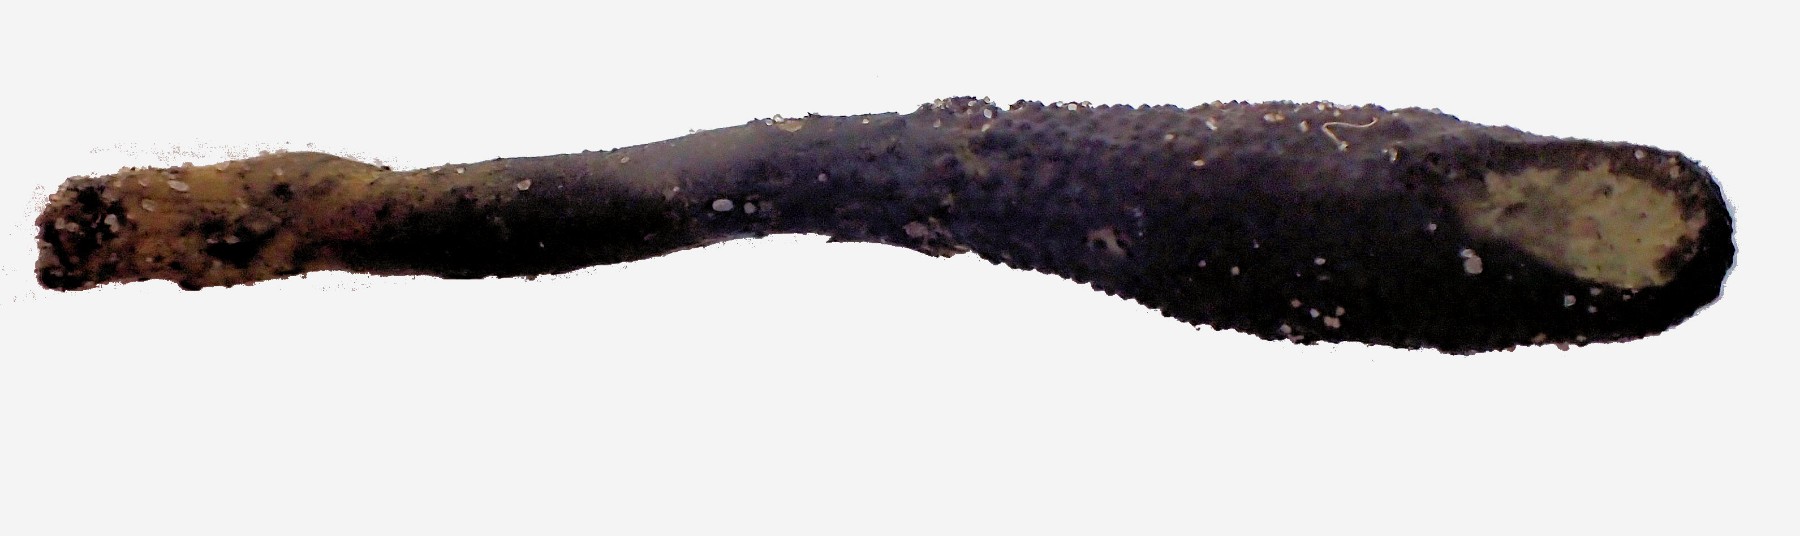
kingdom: Fungi
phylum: Ascomycota
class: Sordariomycetes
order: Hypocreales
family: Ophiocordycipitaceae
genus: Tolypocladium
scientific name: Tolypocladium ophioglossoides
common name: slank snyltekølle
